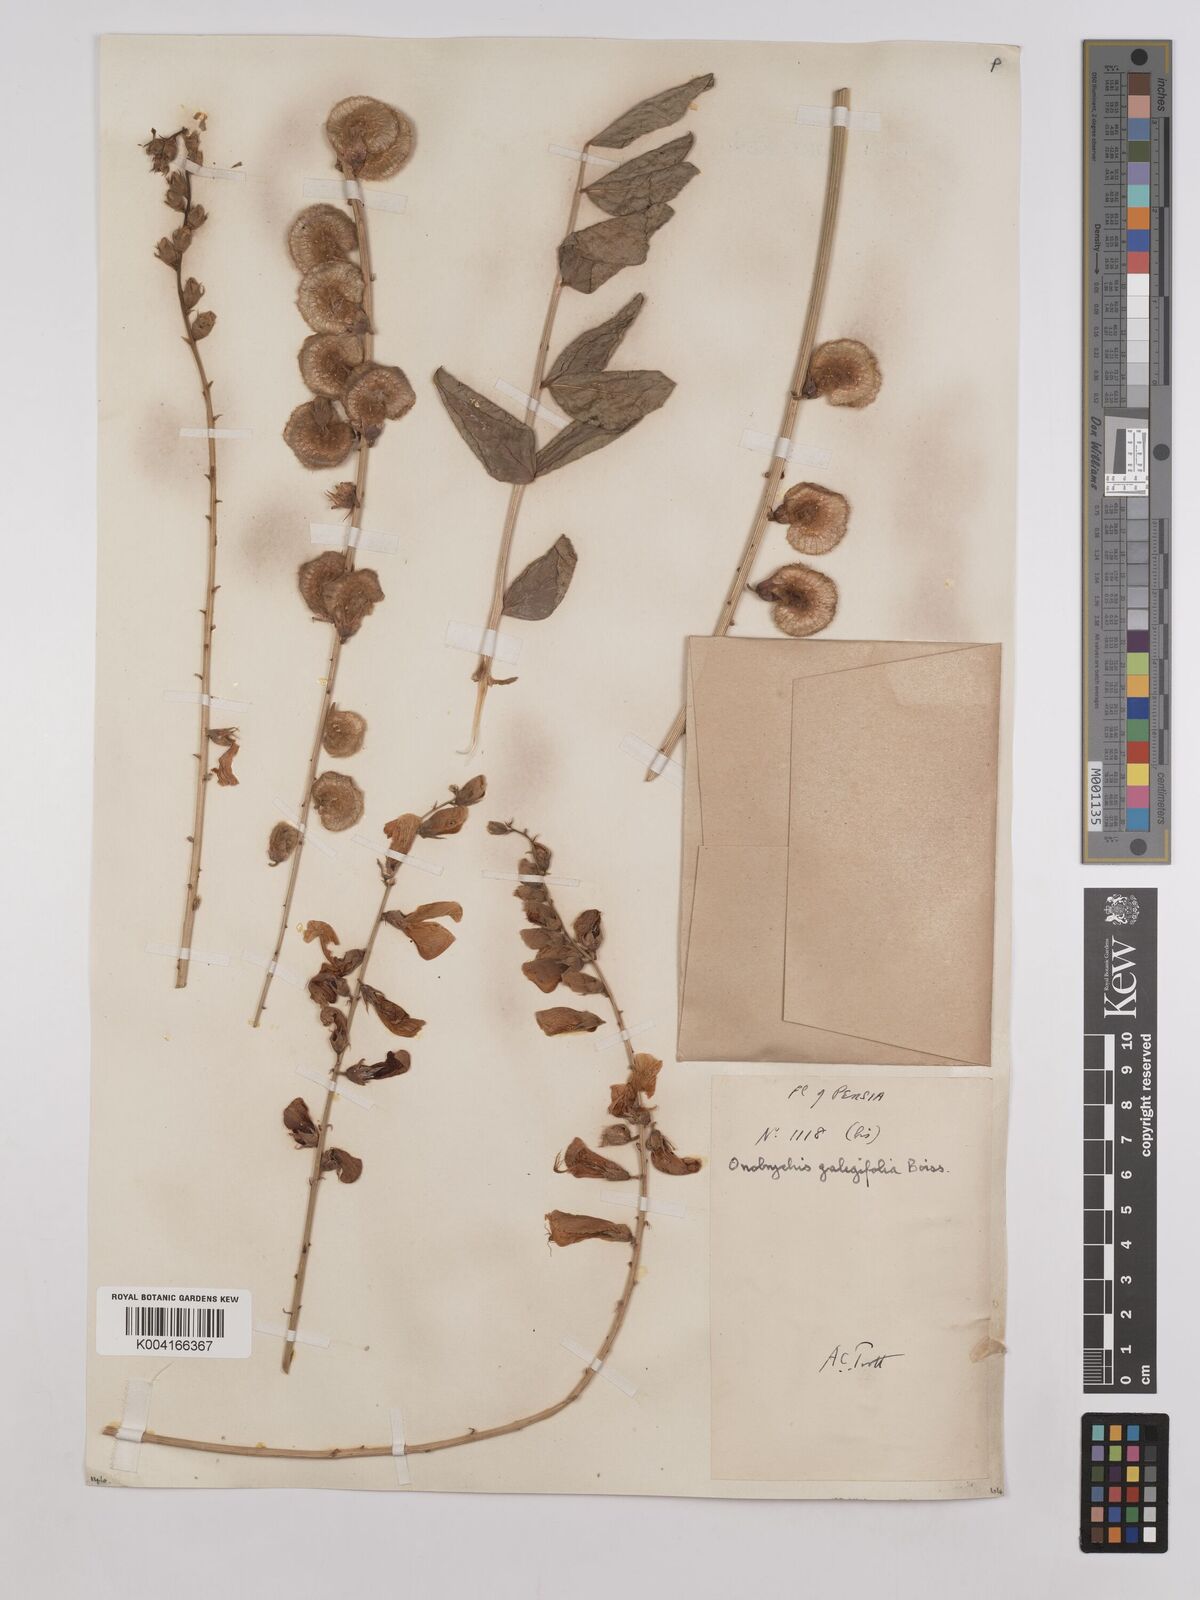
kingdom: Plantae
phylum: Tracheophyta
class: Magnoliopsida
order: Fabales
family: Fabaceae
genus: Onobrychis
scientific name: Onobrychis galegifolia
